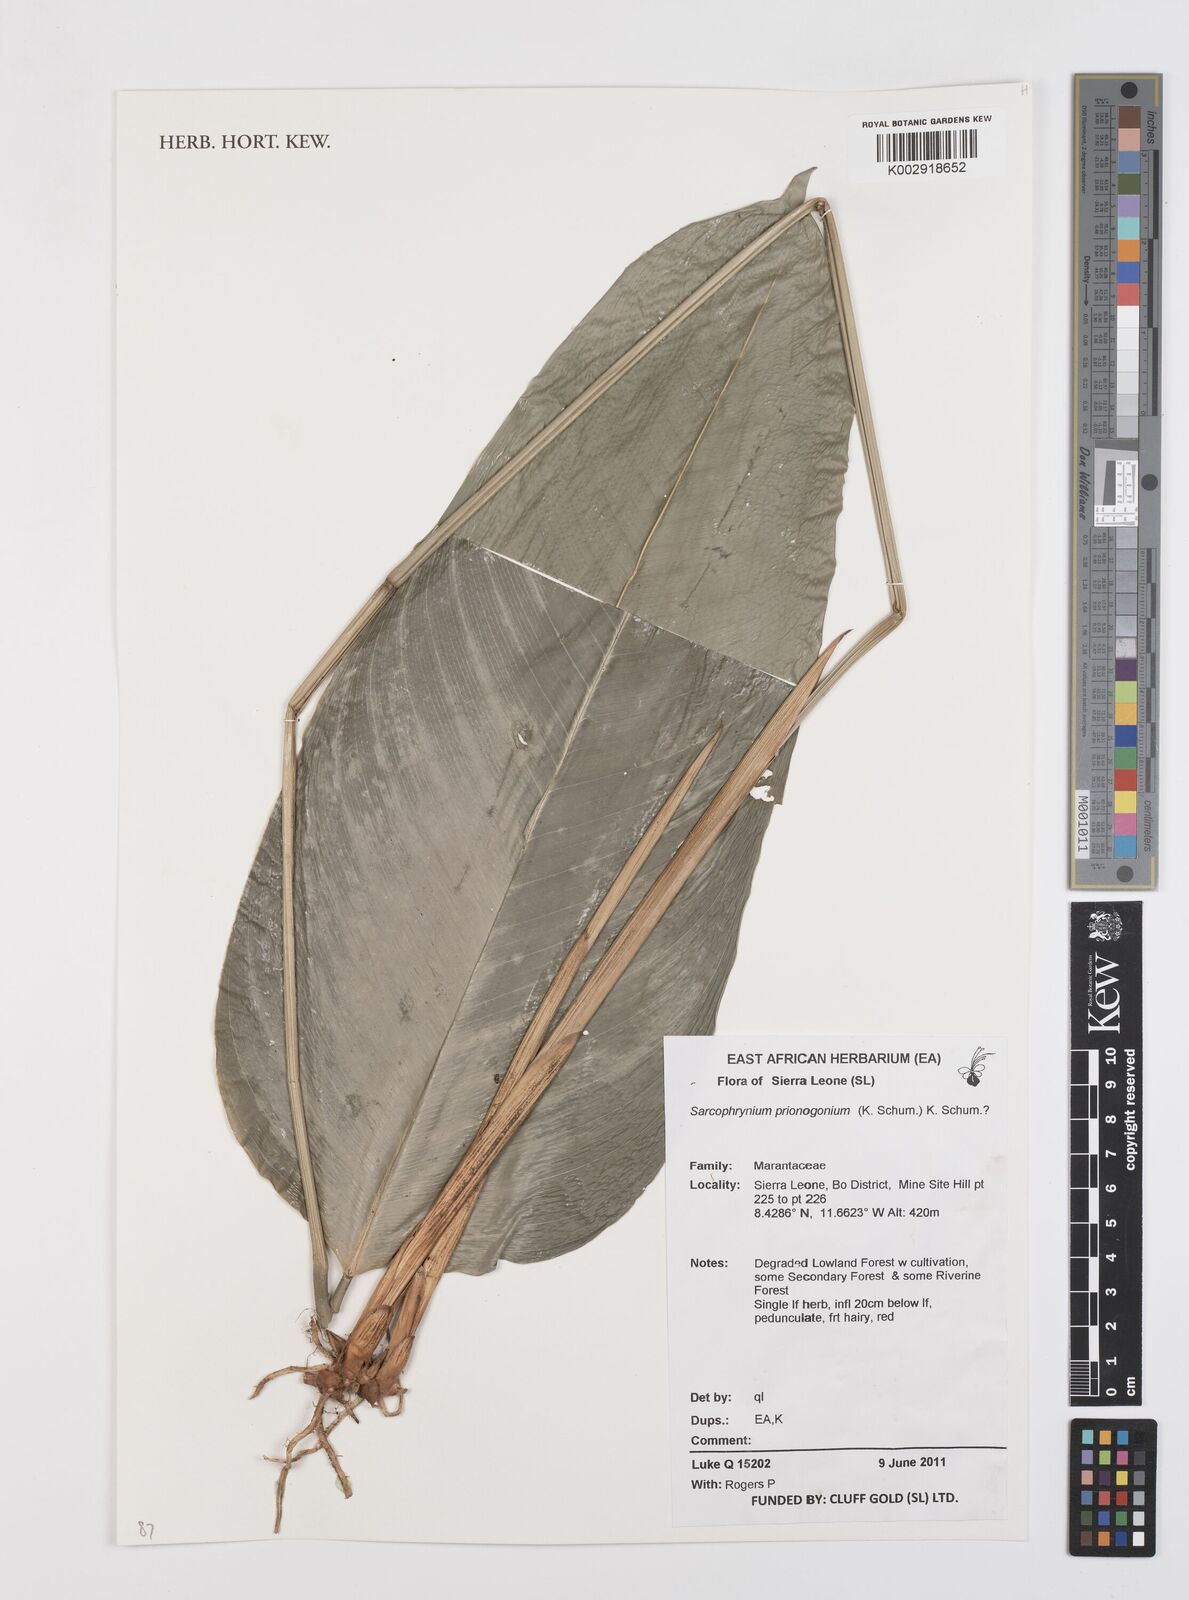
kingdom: Plantae
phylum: Tracheophyta
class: Liliopsida
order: Zingiberales
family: Marantaceae
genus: Sarcophrynium
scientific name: Sarcophrynium prionogonium
